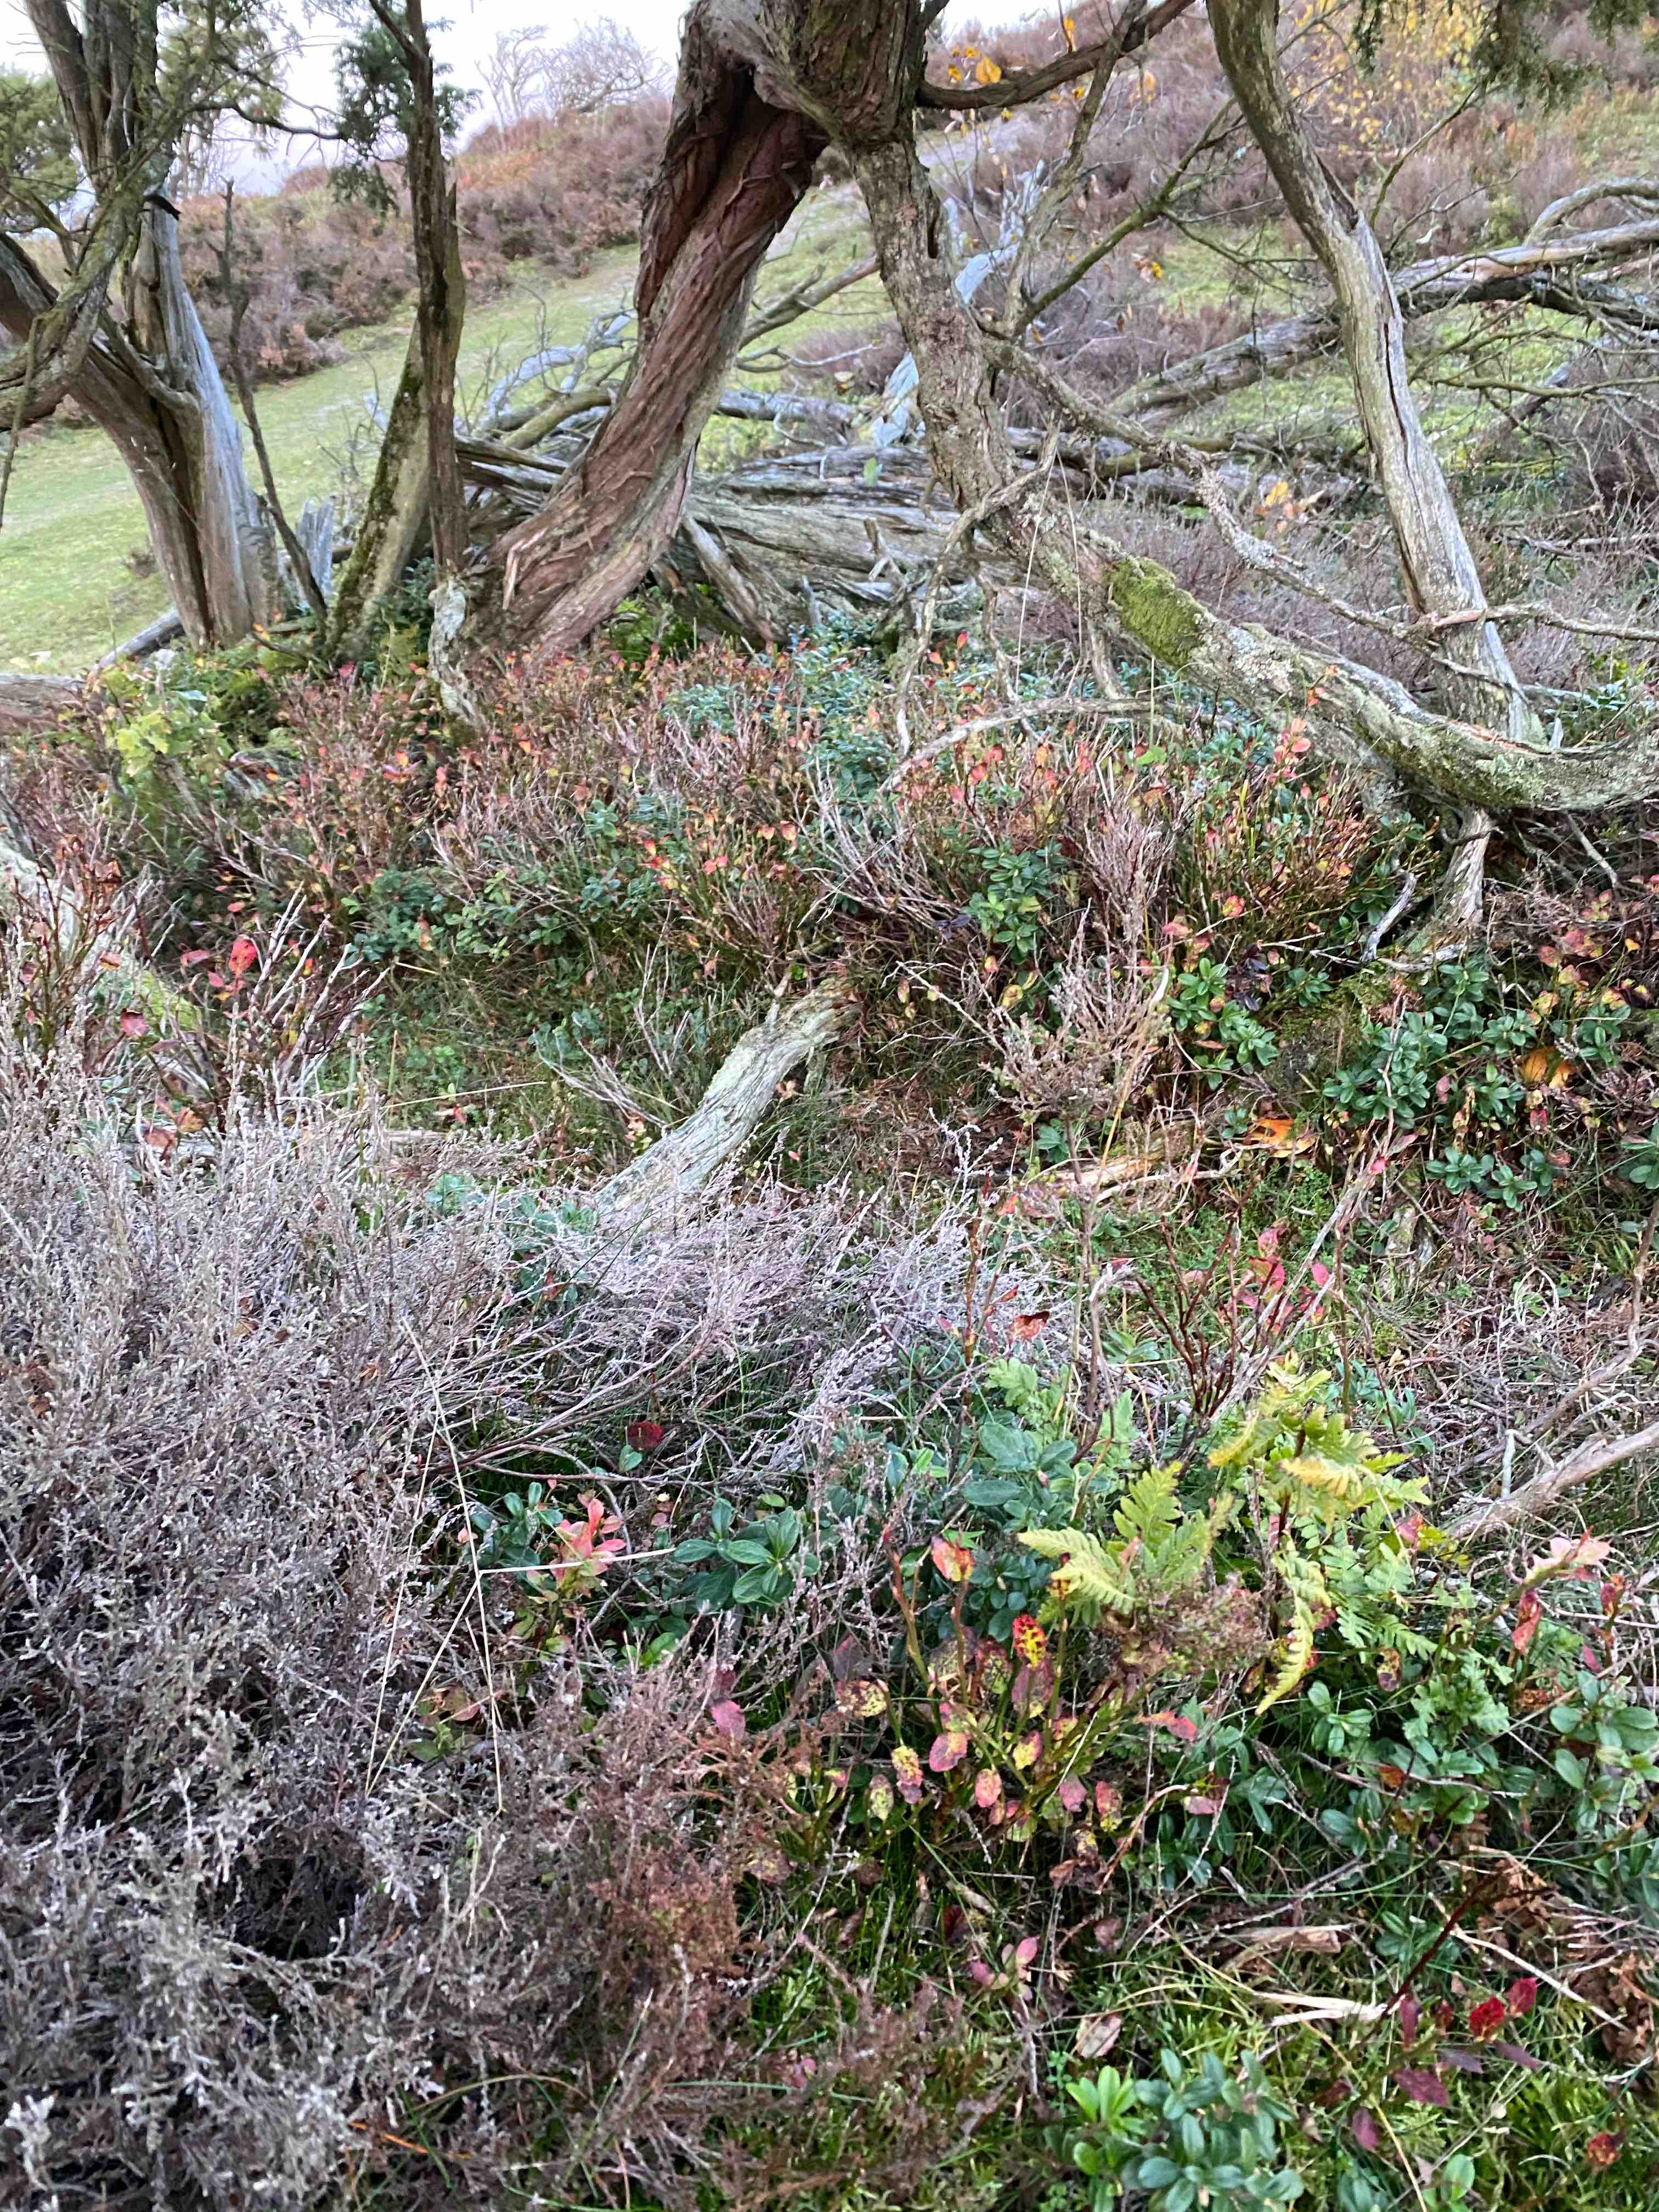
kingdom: Fungi
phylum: Basidiomycota
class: Agaricomycetes
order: Agaricales
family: Hymenogastraceae
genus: Gymnopilus
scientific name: Gymnopilus penetrans
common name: plettet flammehat
